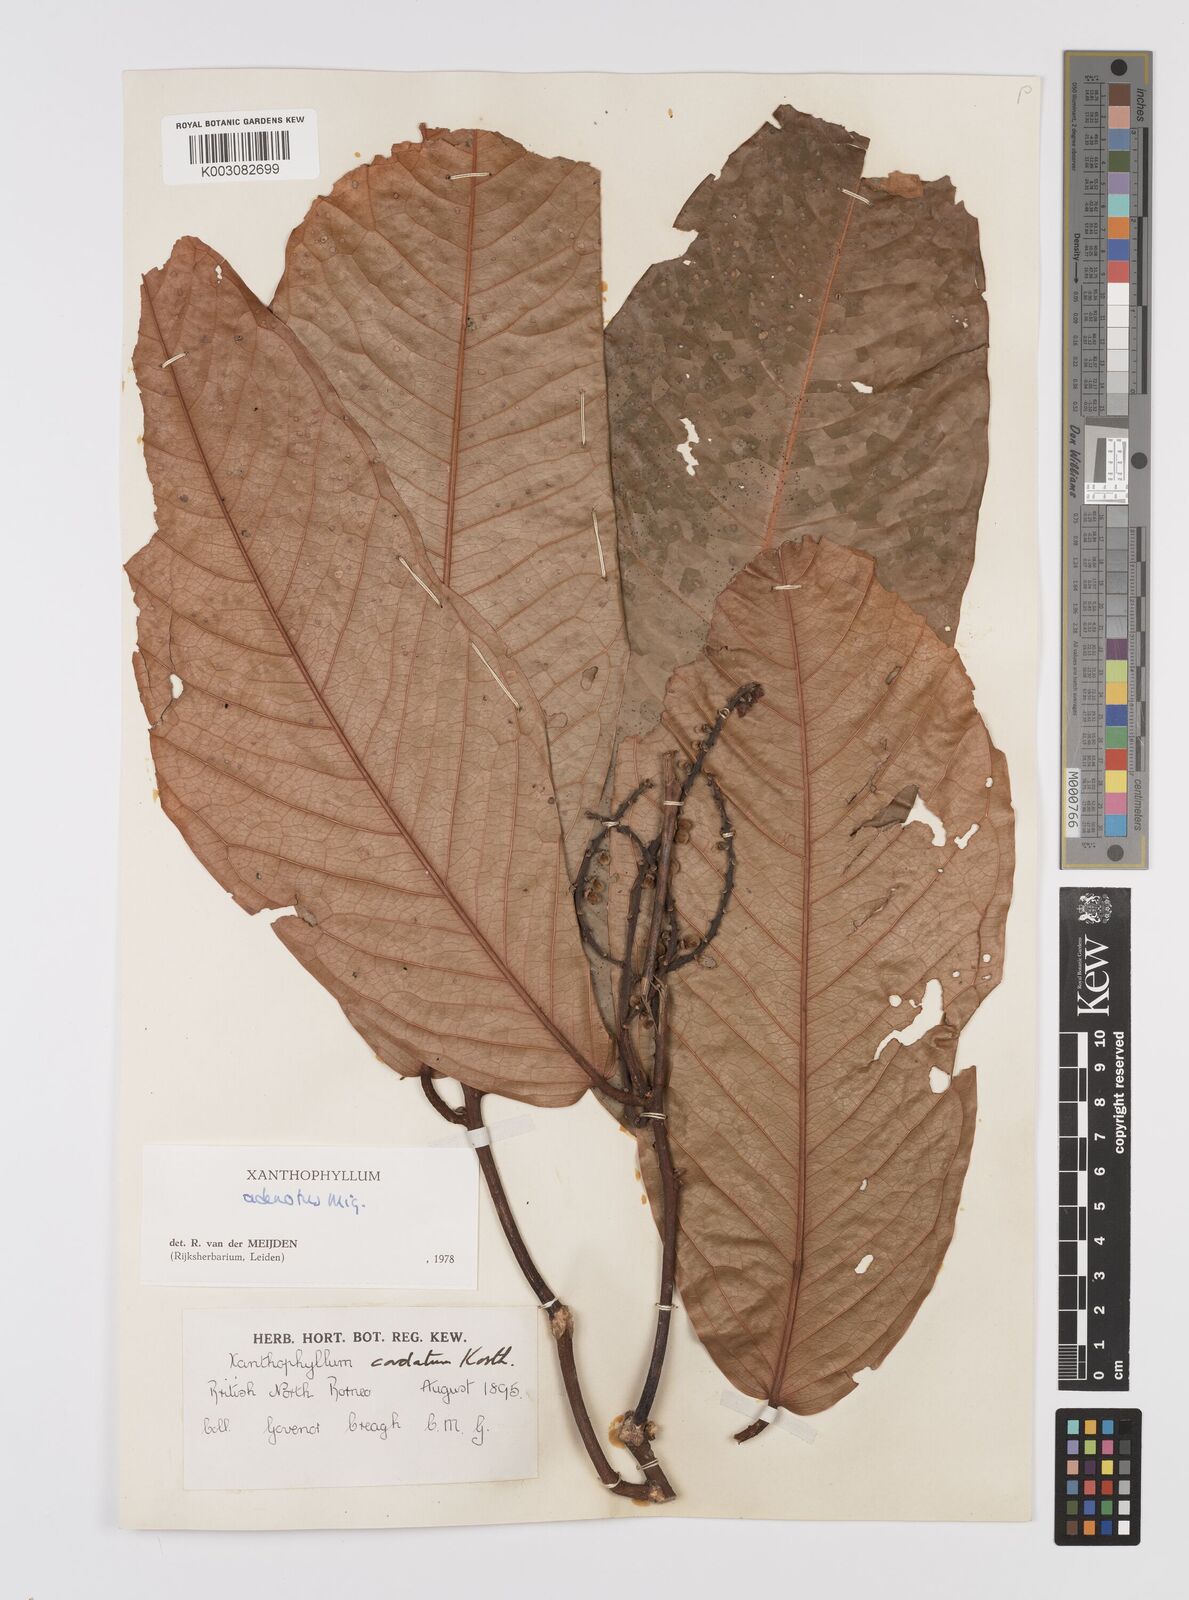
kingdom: Plantae
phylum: Tracheophyta
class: Magnoliopsida
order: Fabales
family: Polygalaceae
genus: Xanthophyllum
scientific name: Xanthophyllum adenotus
